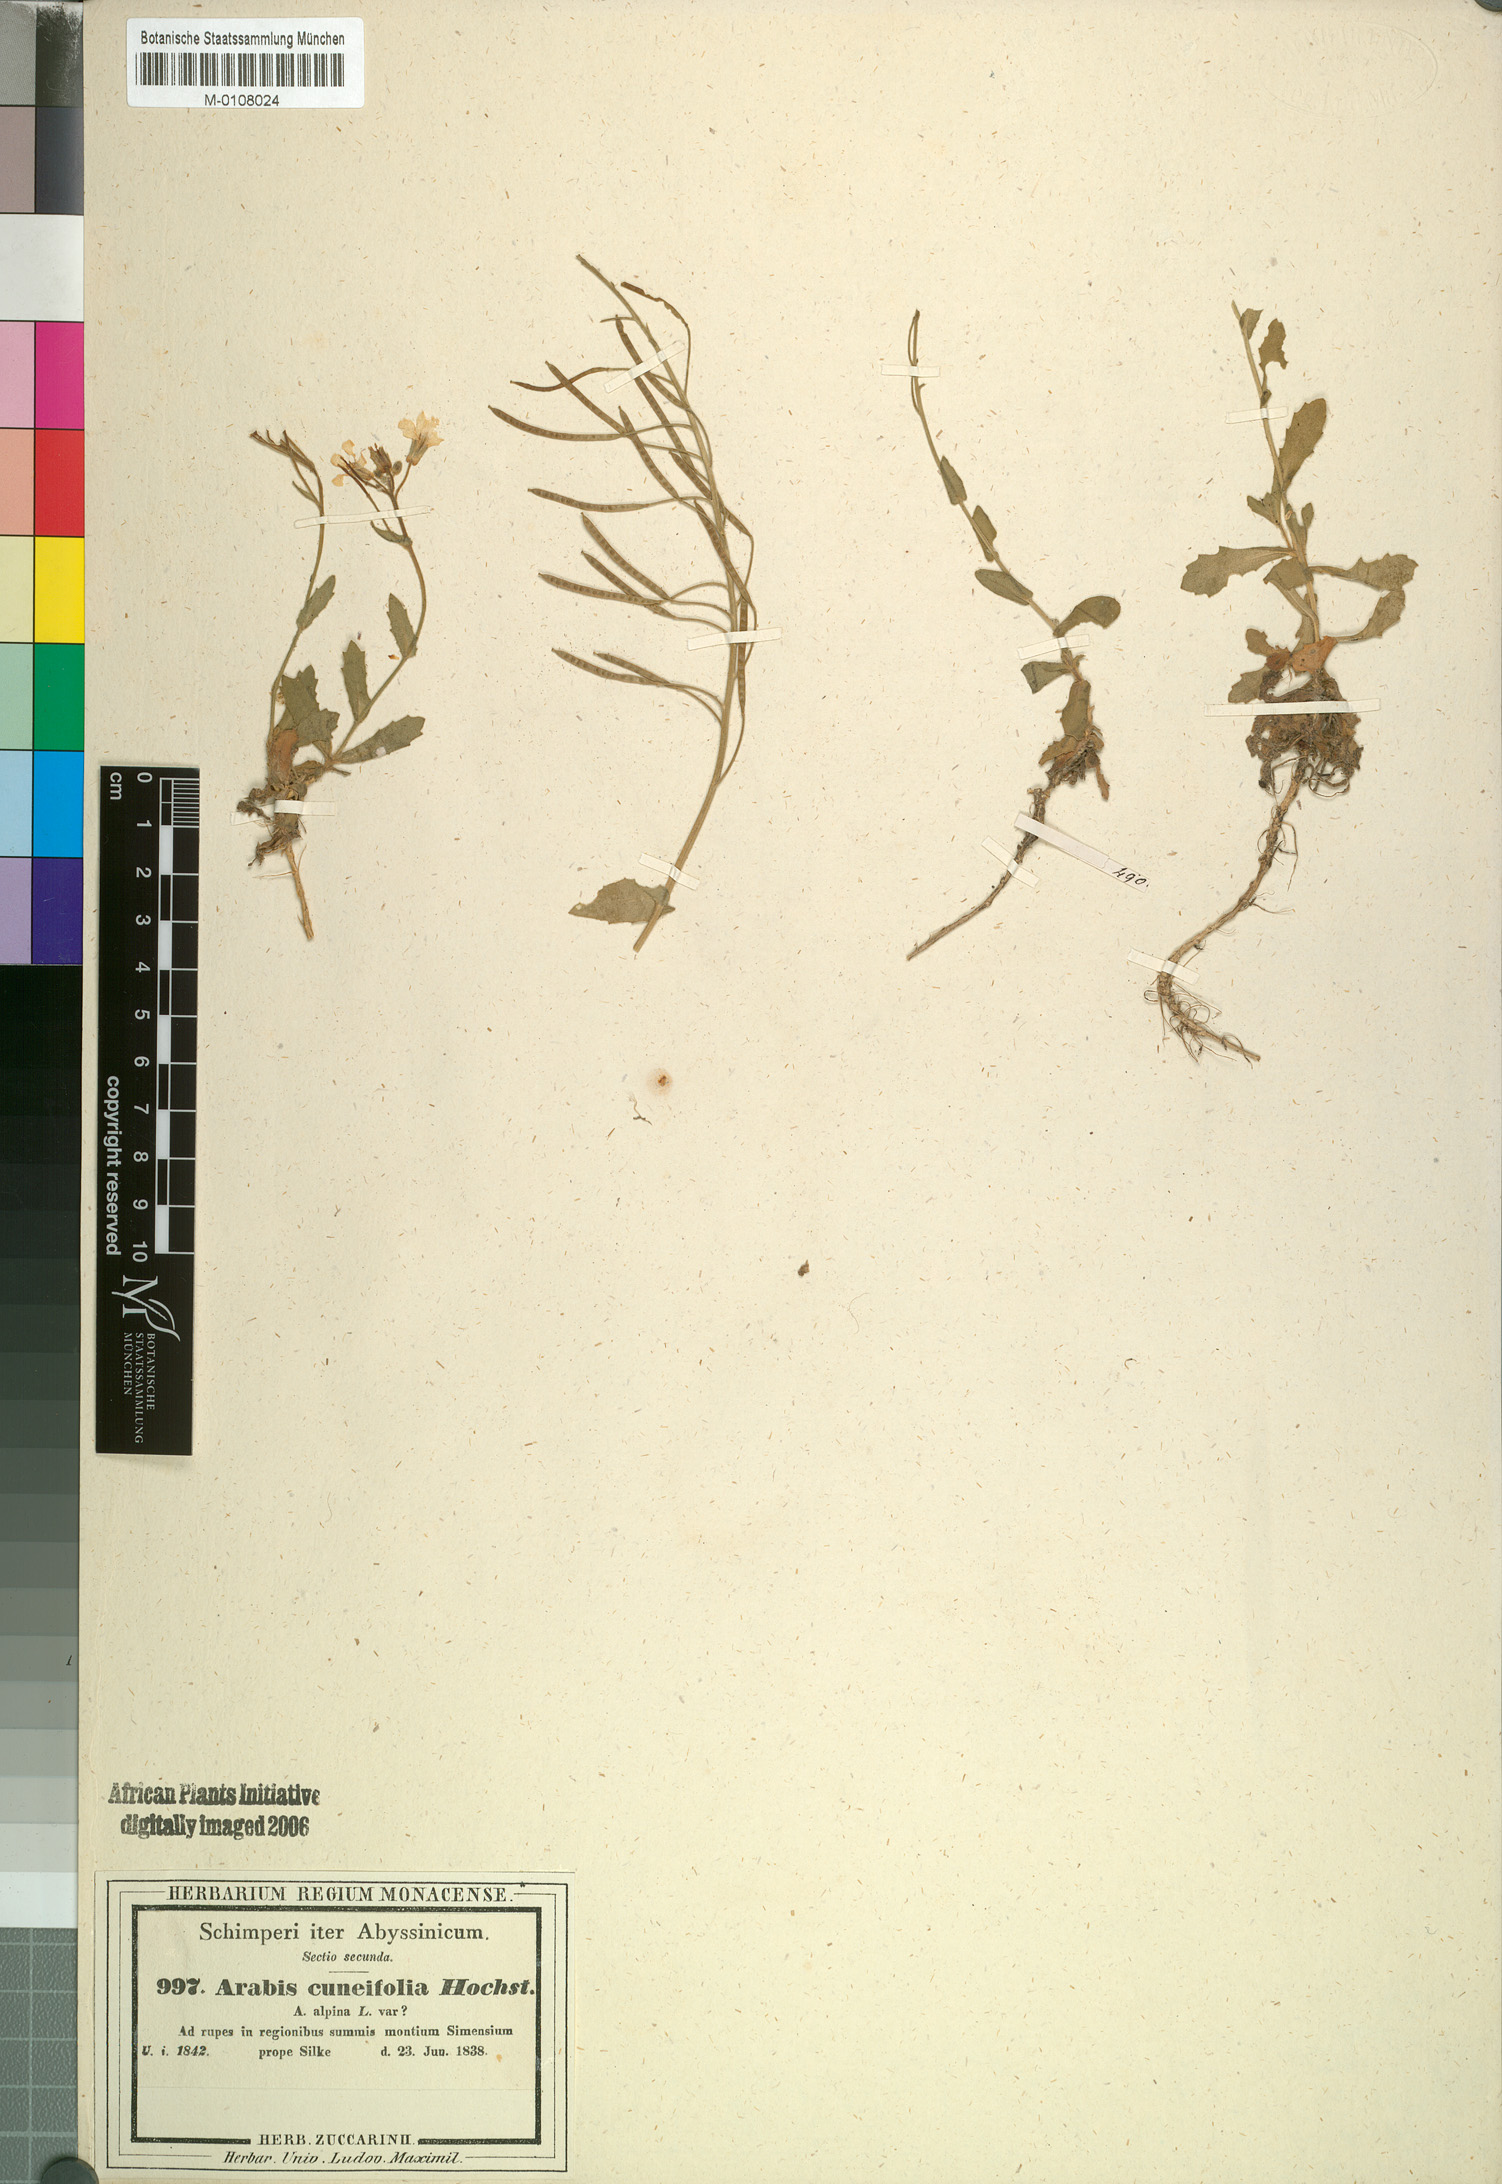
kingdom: Plantae
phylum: Tracheophyta
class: Magnoliopsida
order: Brassicales
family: Brassicaceae
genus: Arabis
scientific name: Arabis alpina
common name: Alpine rock-cress
